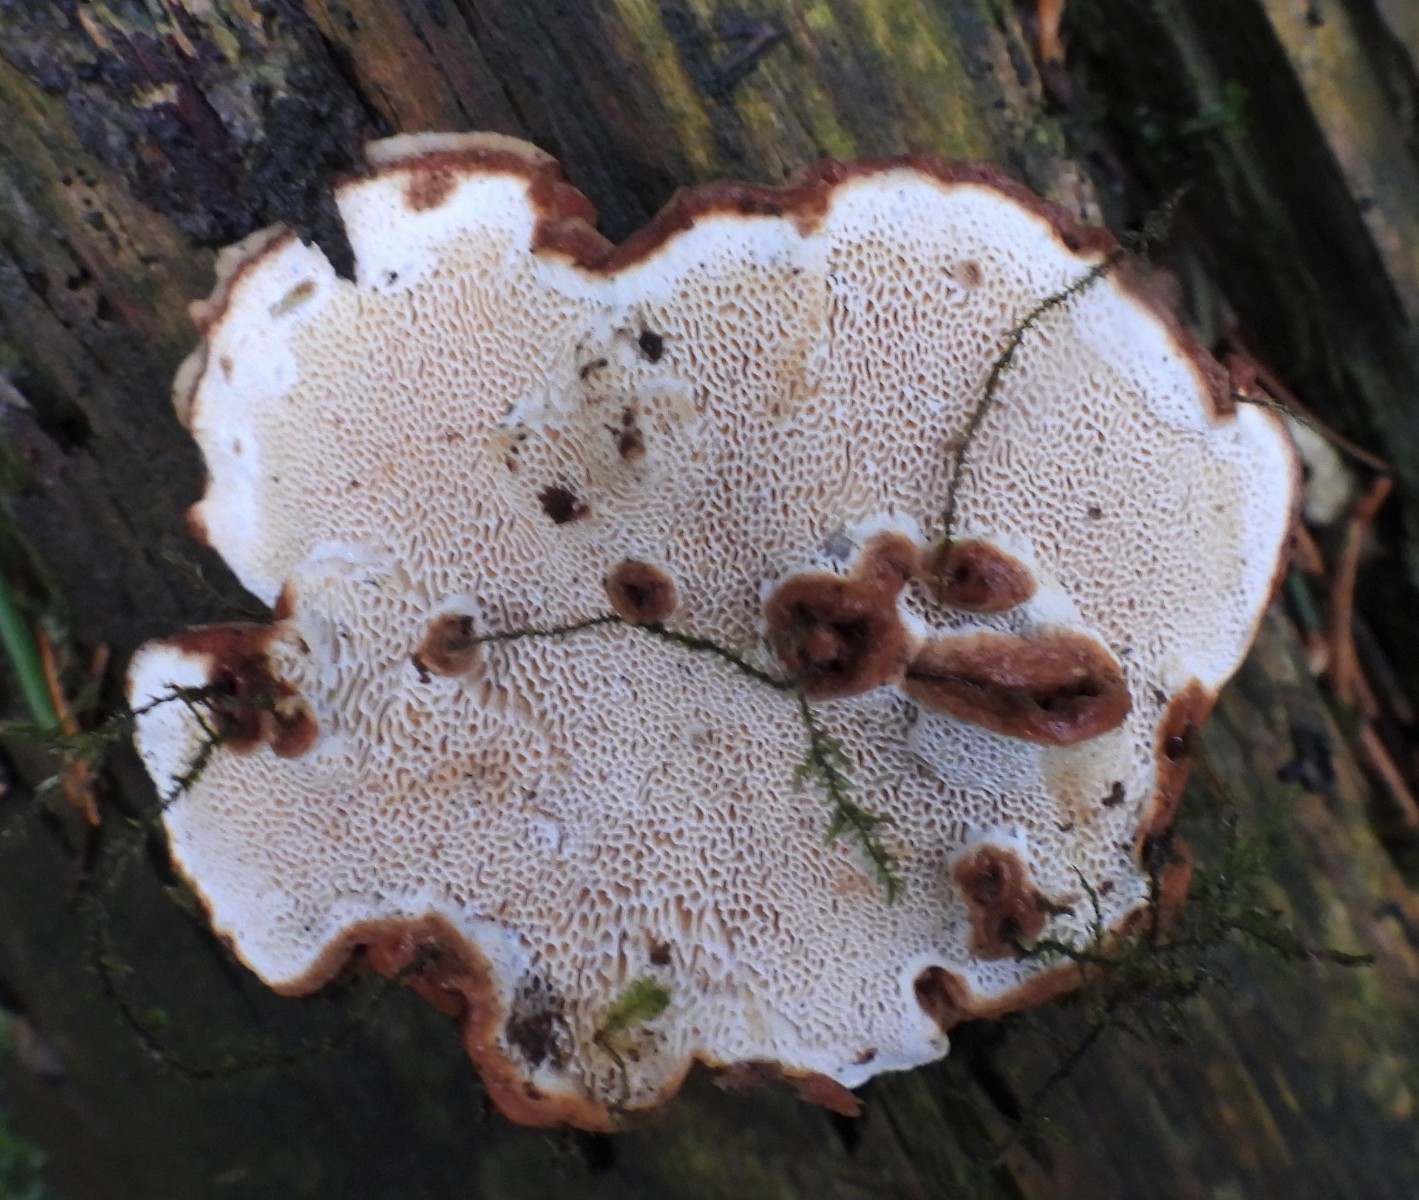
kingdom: Fungi
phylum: Basidiomycota
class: Agaricomycetes
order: Polyporales
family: Polyporaceae
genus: Ganoderma
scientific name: Ganoderma lucidum
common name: skinnende lakporesvamp
